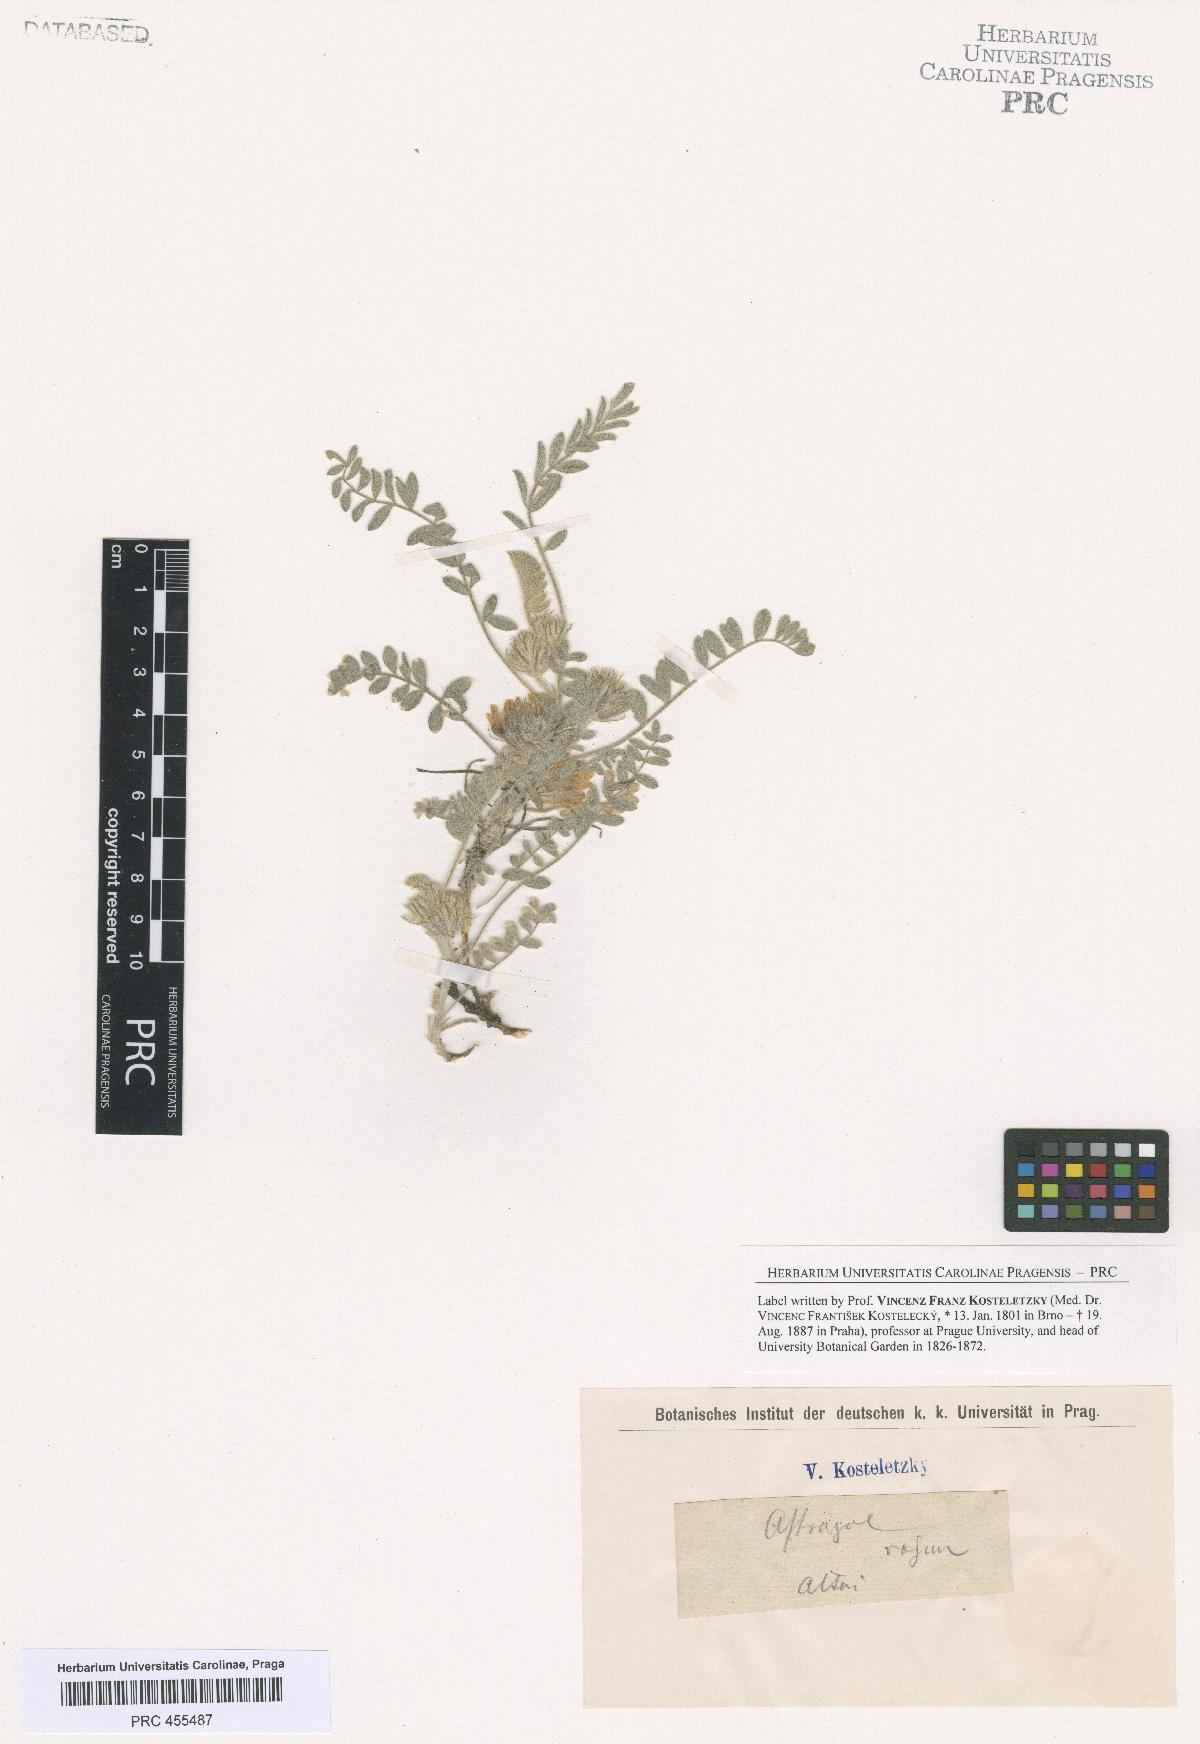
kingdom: Plantae
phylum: Tracheophyta
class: Magnoliopsida
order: Fabales
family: Fabaceae
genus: Astragalus
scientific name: Astragalus
